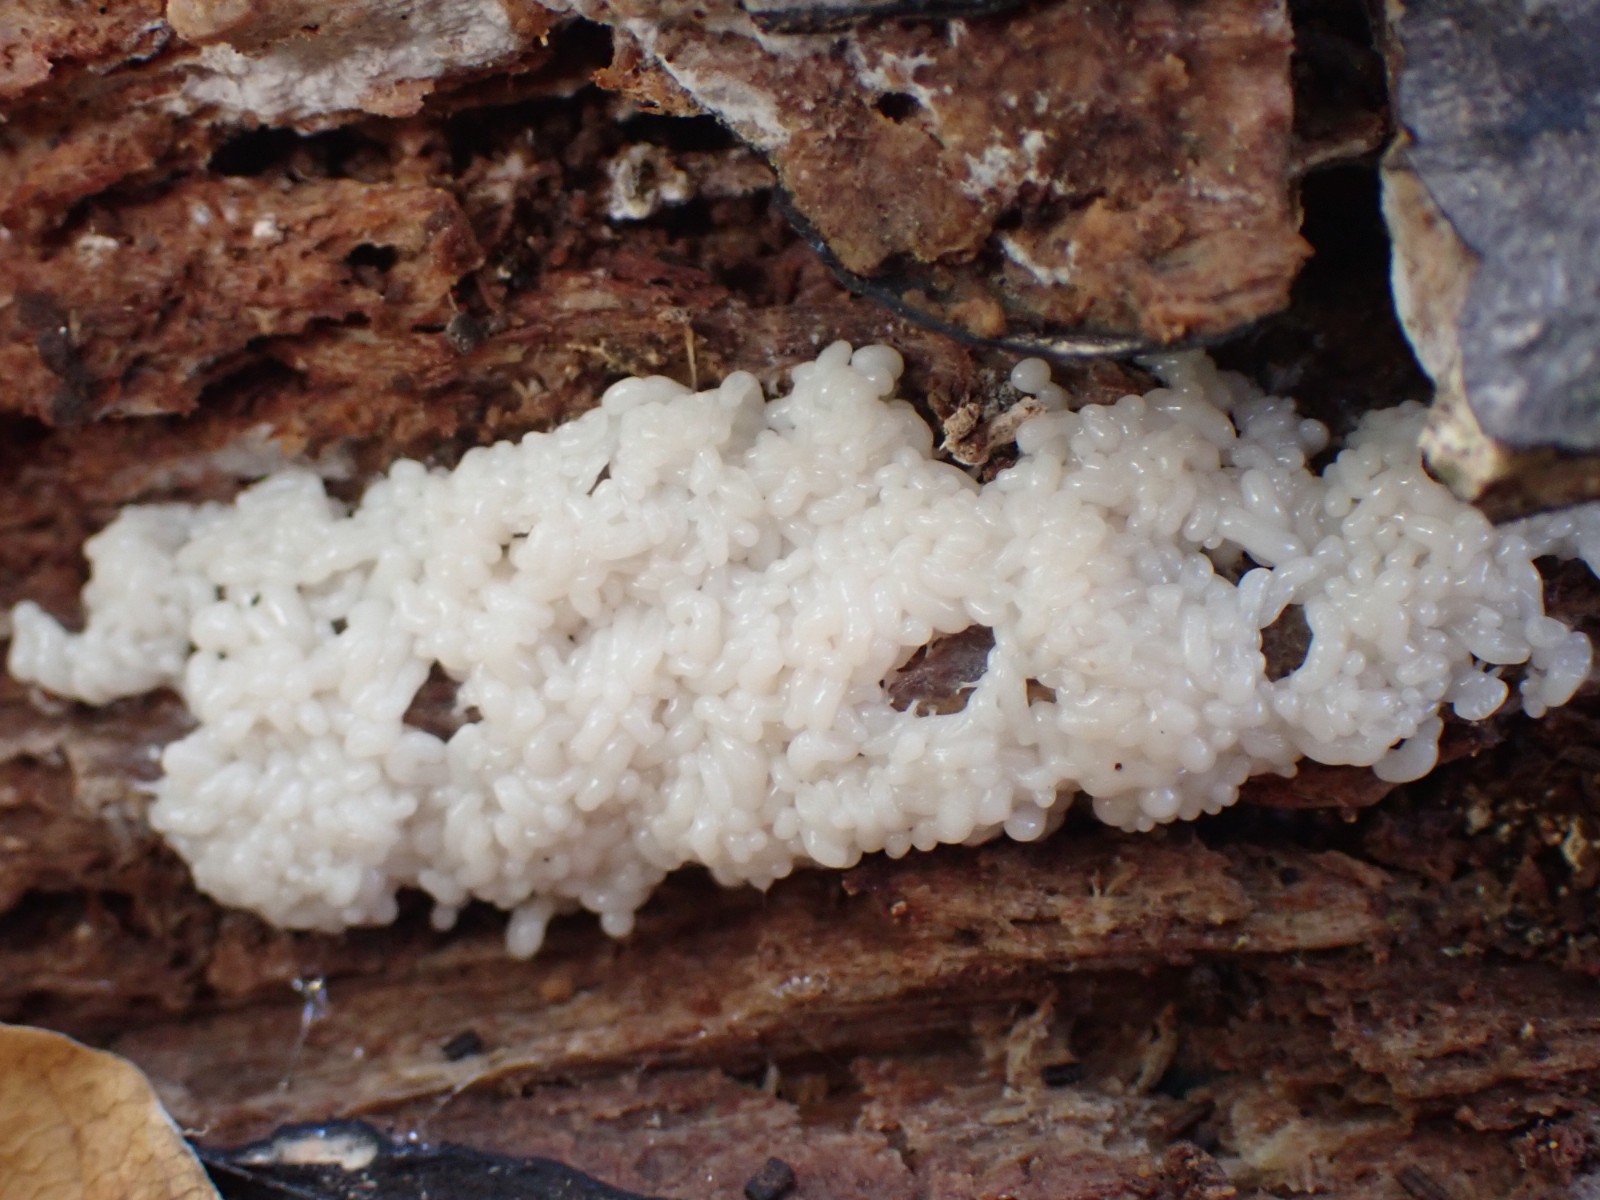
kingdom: Protozoa
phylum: Mycetozoa
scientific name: Mycetozoa
